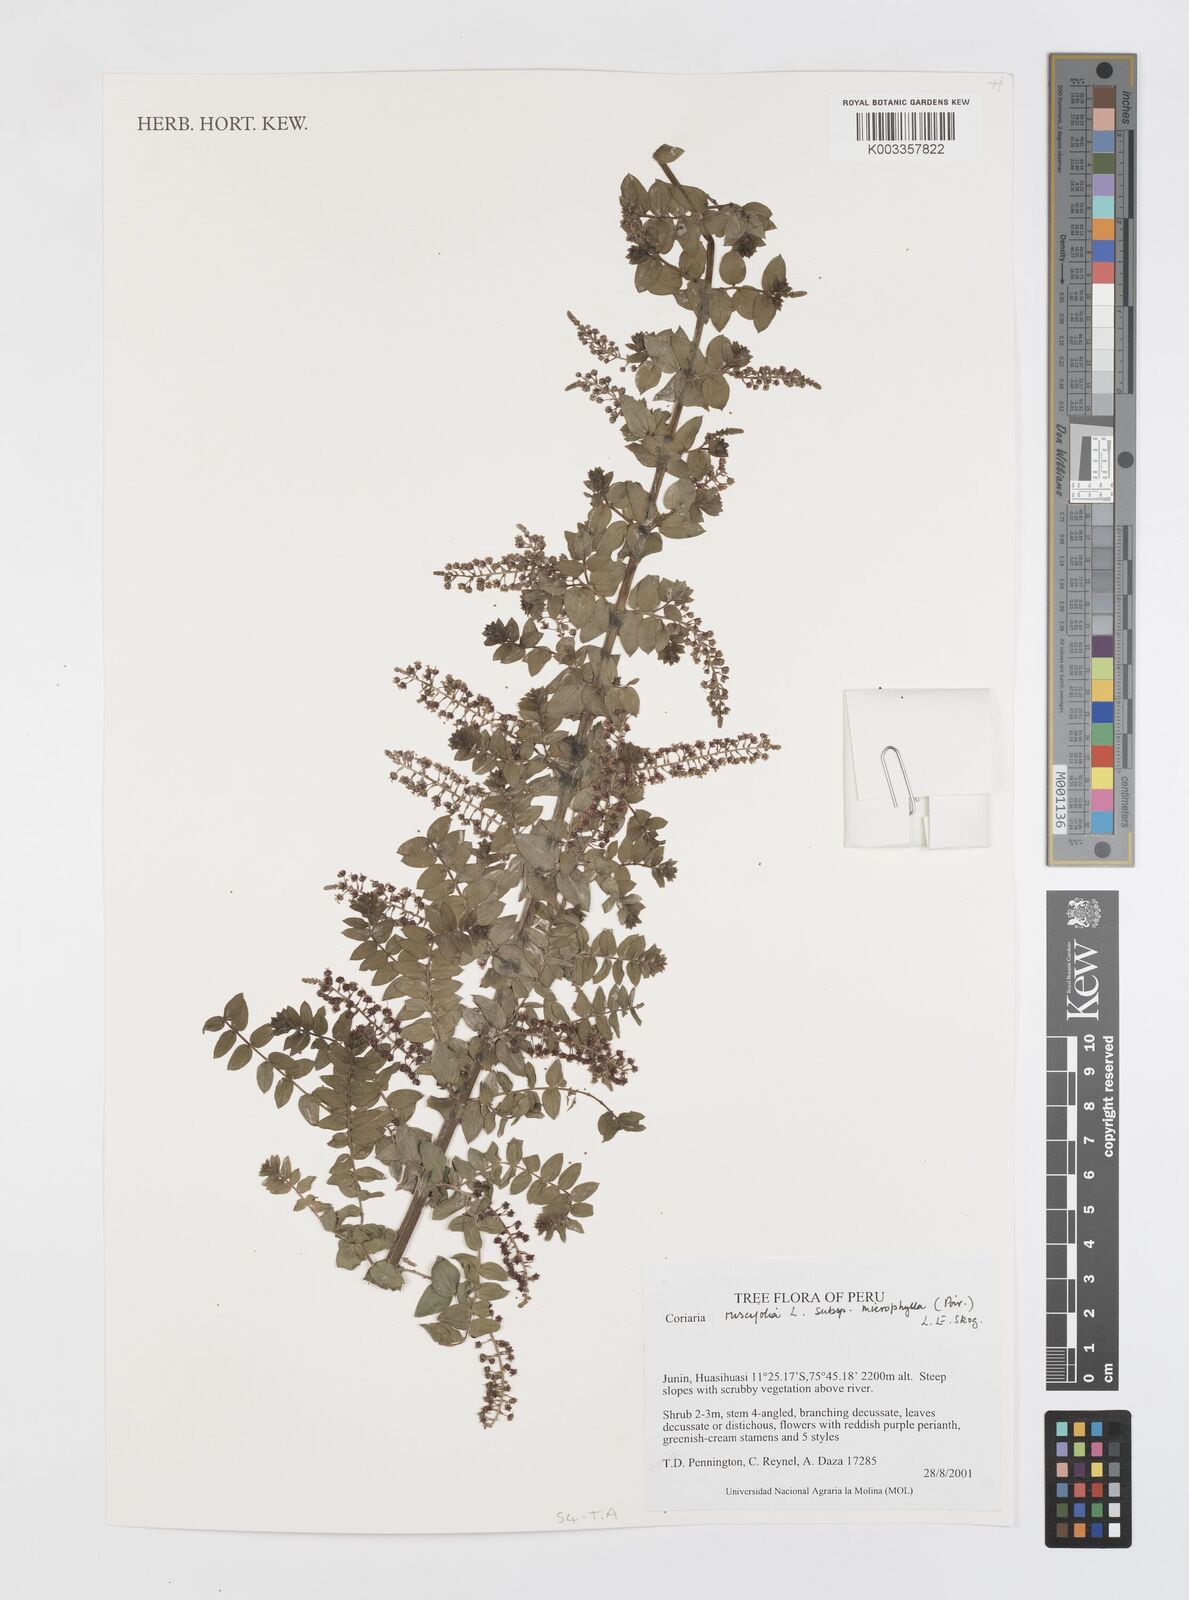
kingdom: Plantae
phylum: Tracheophyta
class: Magnoliopsida
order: Cucurbitales
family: Coriariaceae
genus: Coriaria
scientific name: Coriaria ruscifolia
